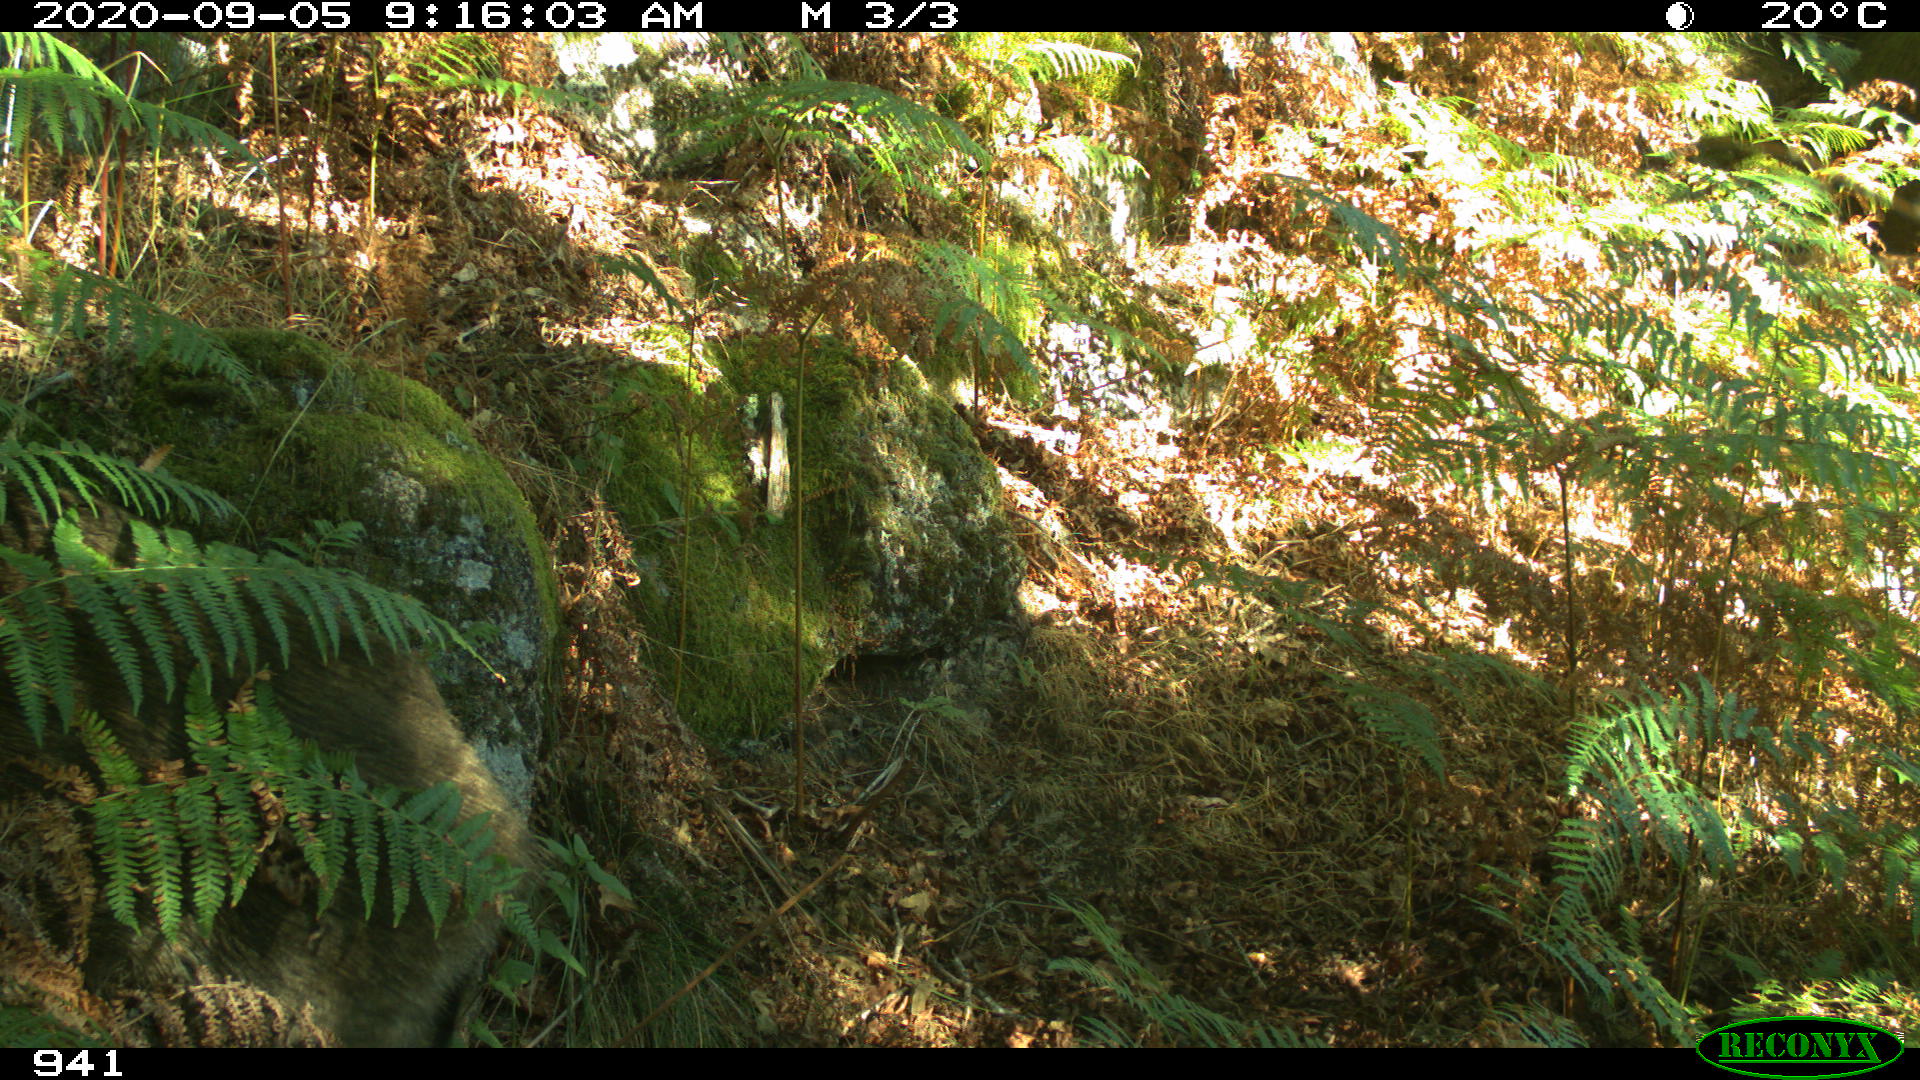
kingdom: Animalia
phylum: Chordata
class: Mammalia
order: Artiodactyla
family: Suidae
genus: Sus
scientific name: Sus scrofa
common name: Wild boar
